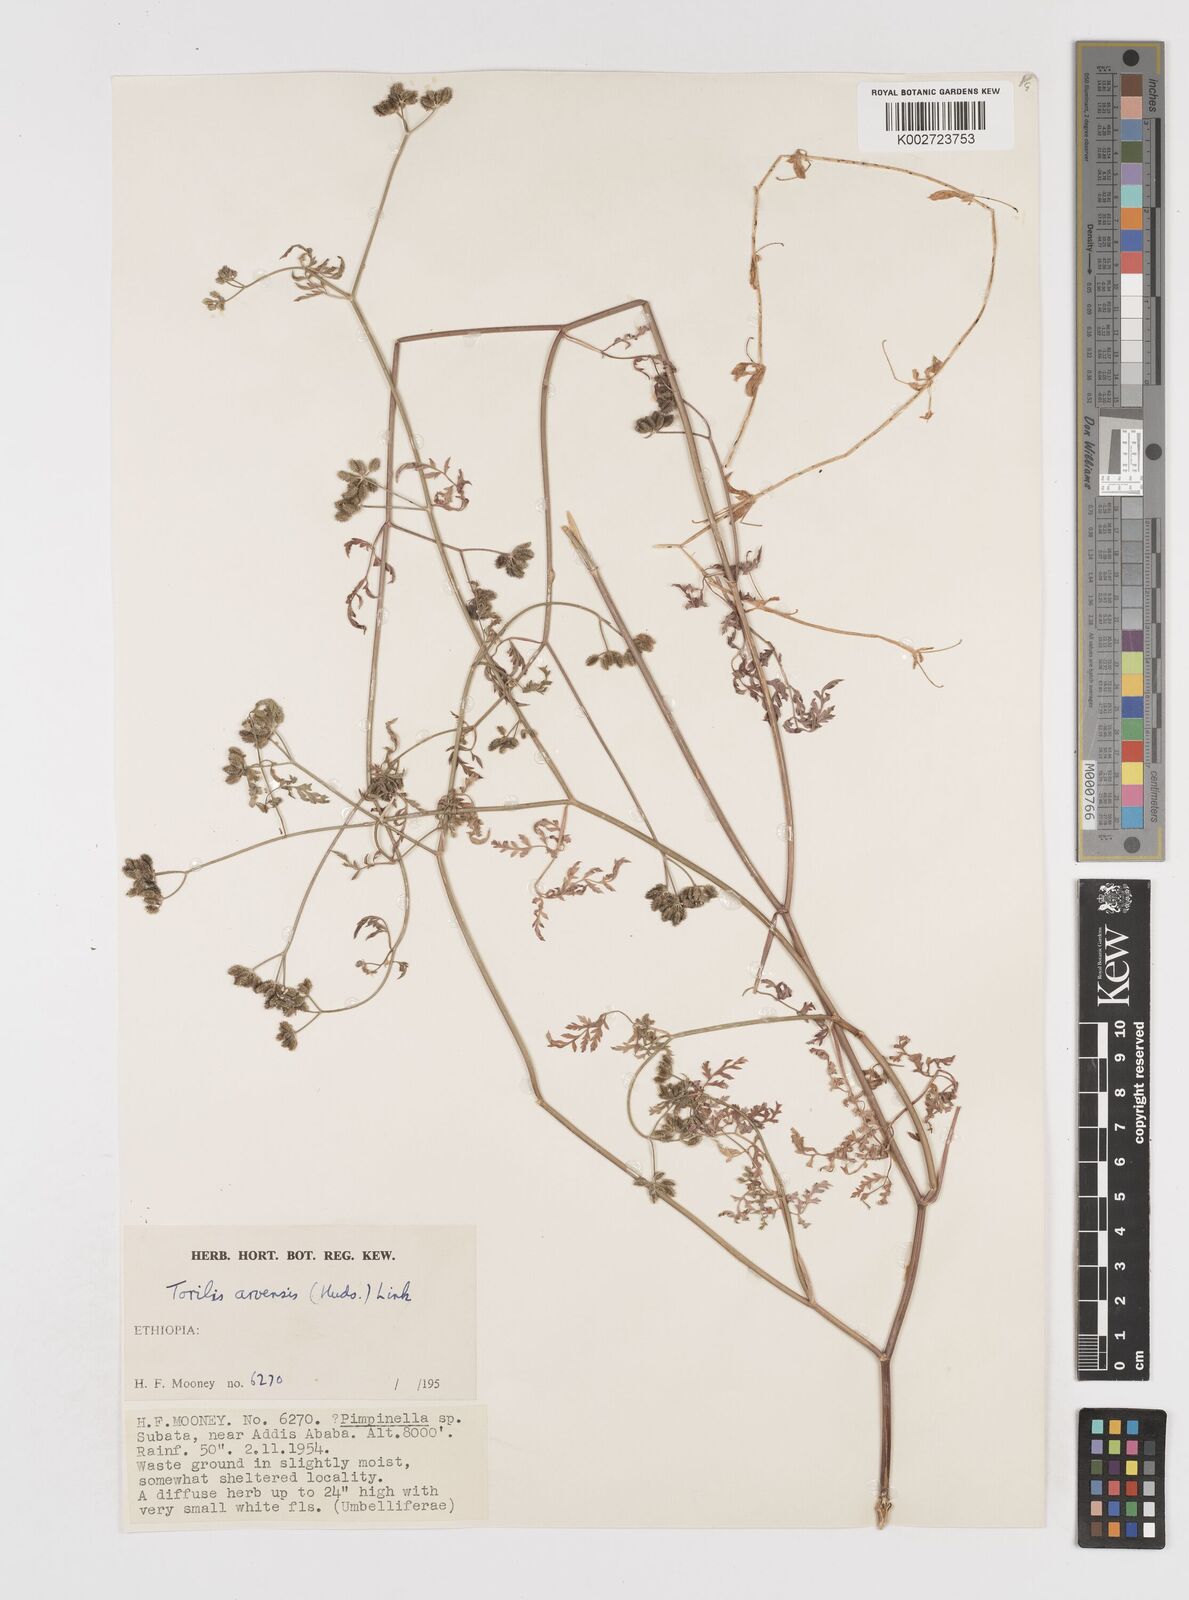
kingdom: Plantae
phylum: Tracheophyta
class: Magnoliopsida
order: Apiales
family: Apiaceae
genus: Torilis
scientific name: Torilis arvensis
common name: Spreading hedge-parsley
